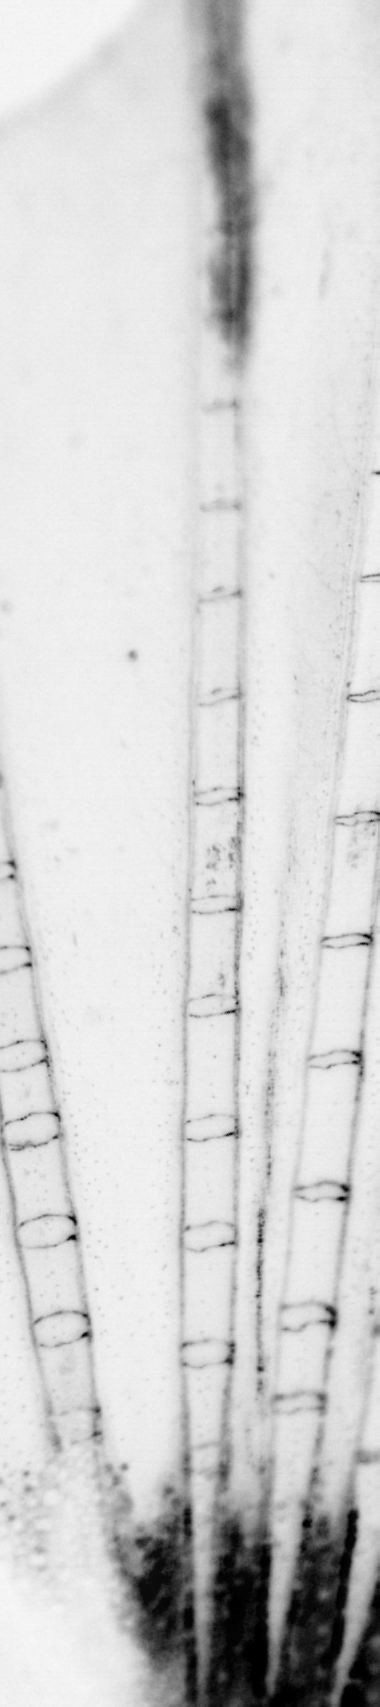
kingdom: Animalia
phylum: Chordata
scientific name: Chordata
